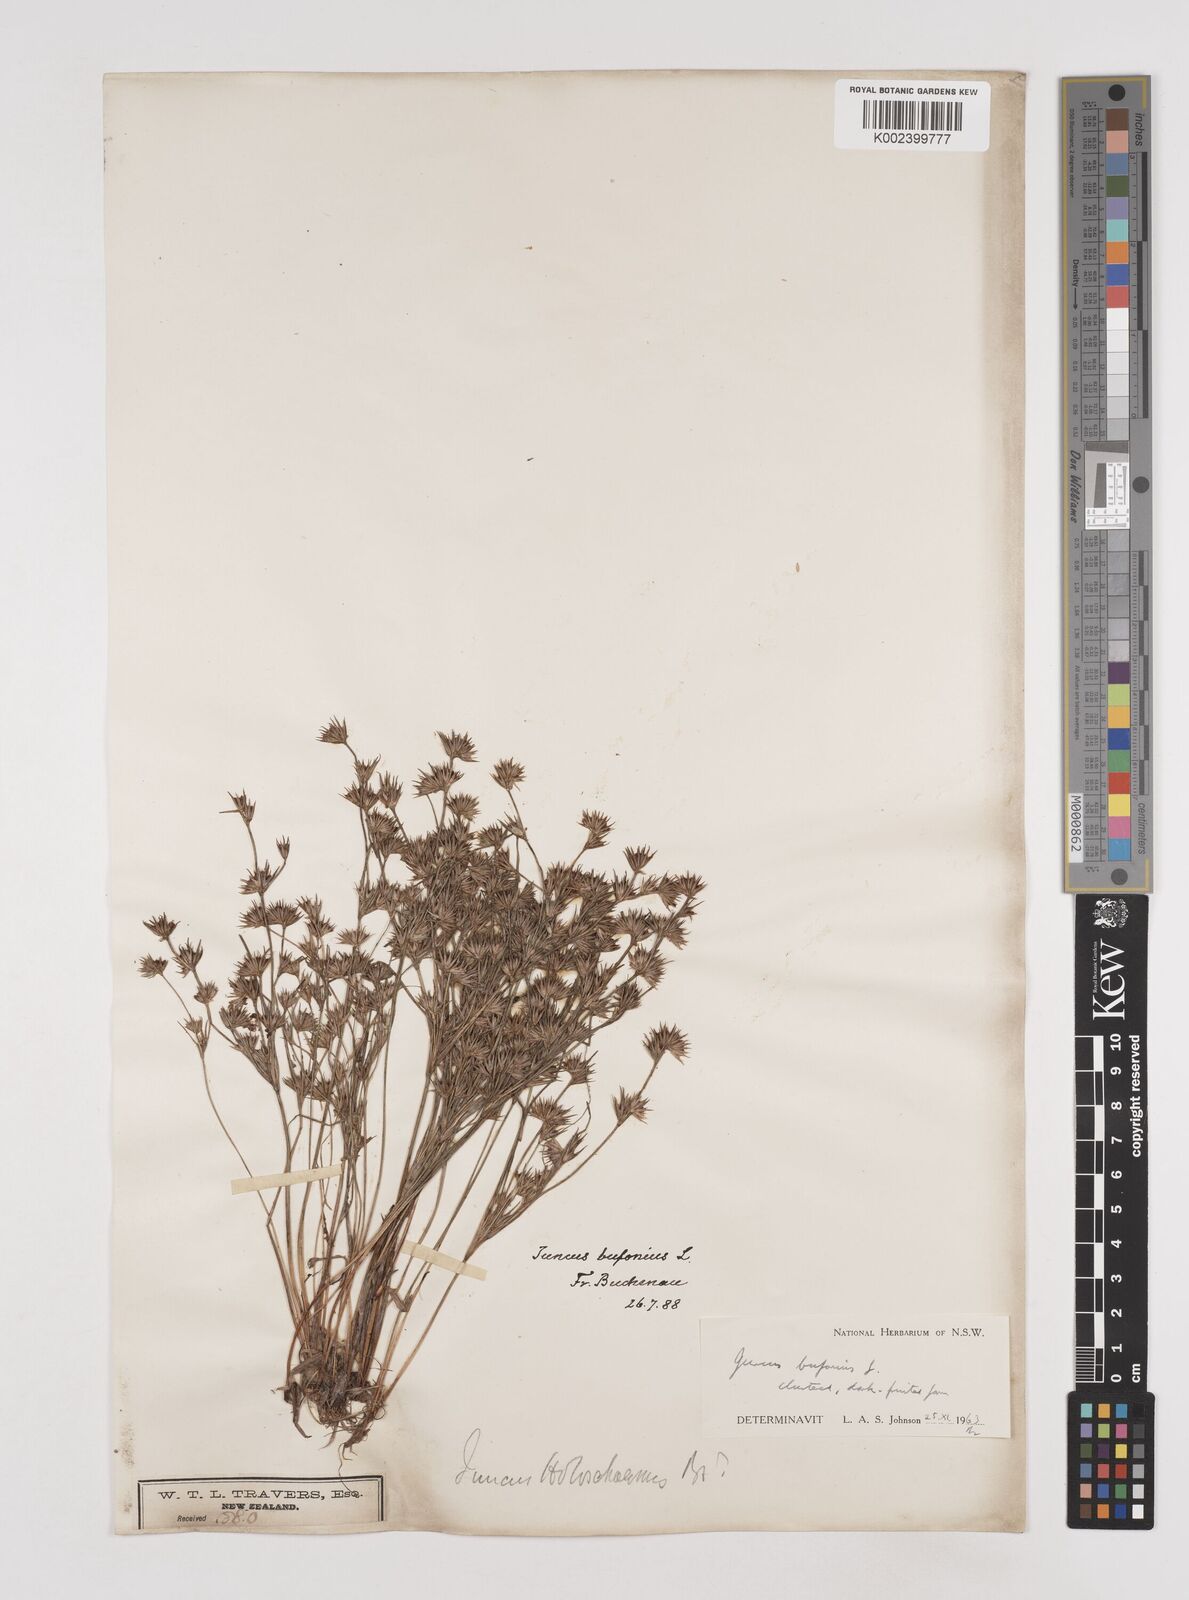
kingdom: Plantae
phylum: Tracheophyta
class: Liliopsida
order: Poales
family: Juncaceae
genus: Juncus
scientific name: Juncus bufonius
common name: Toad rush
